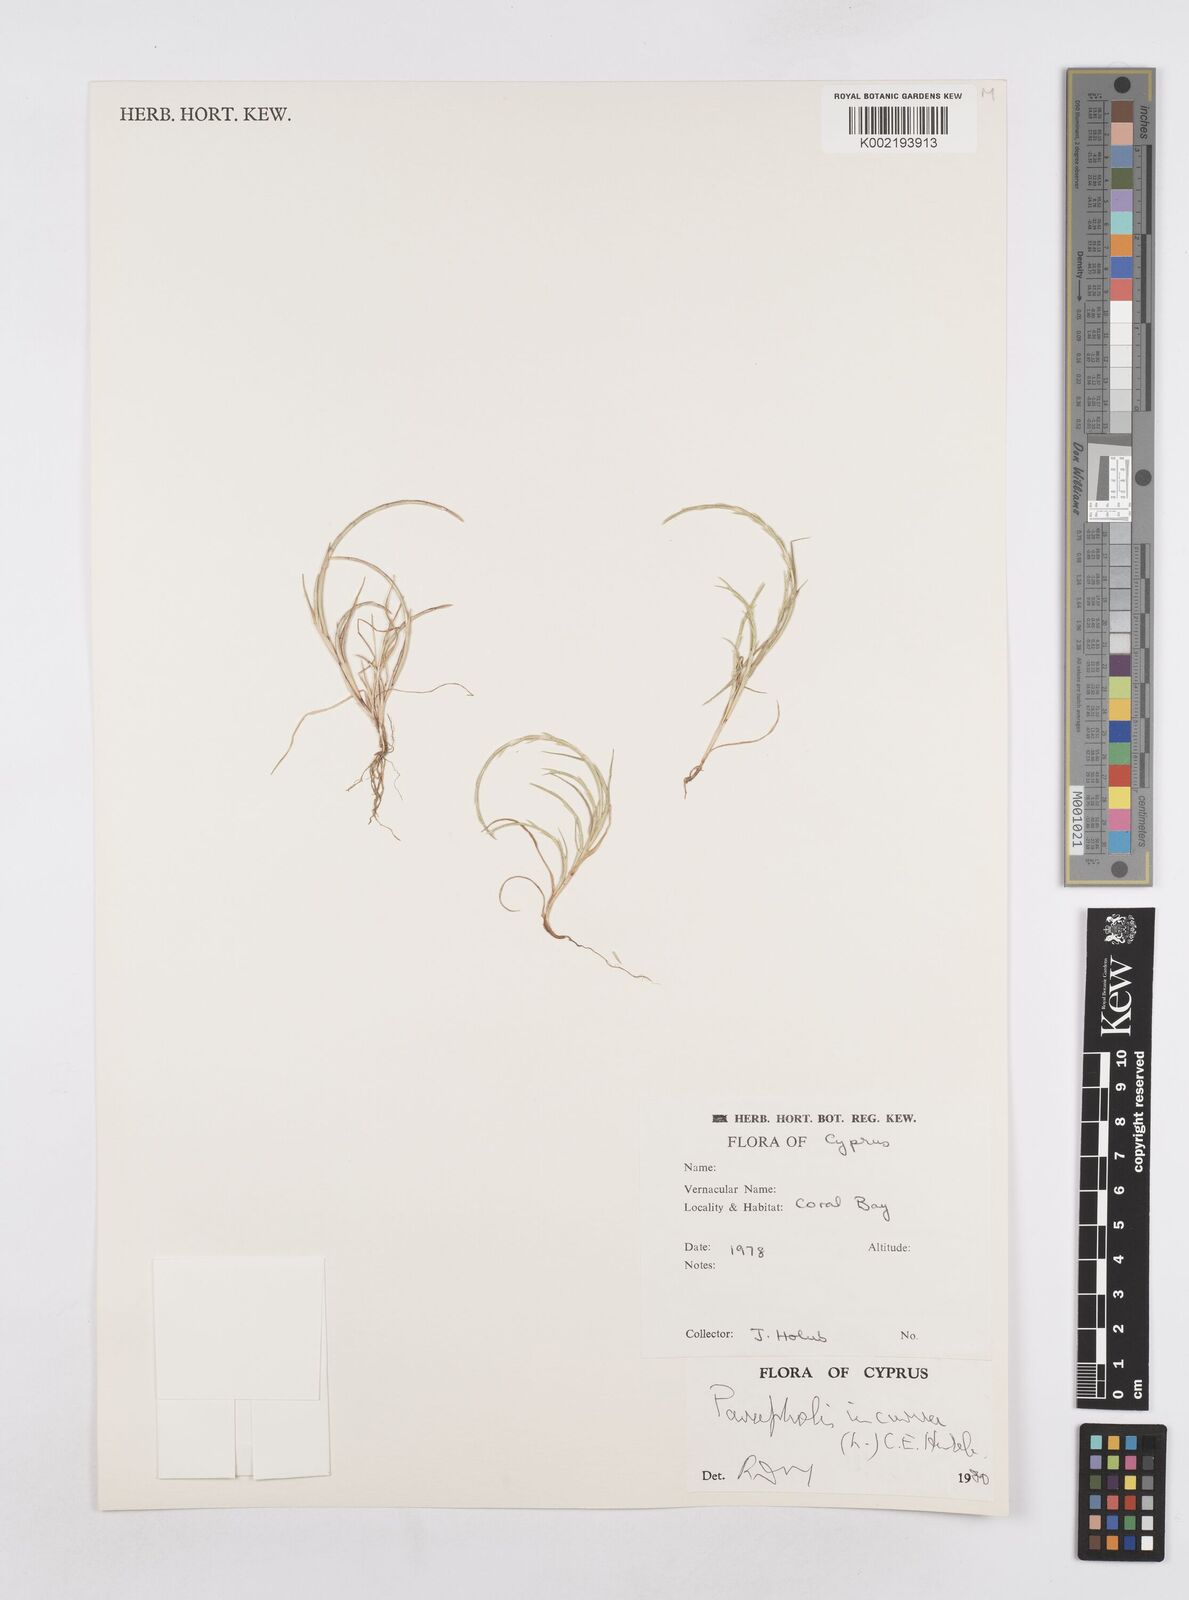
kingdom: Plantae
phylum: Tracheophyta
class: Liliopsida
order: Poales
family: Poaceae
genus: Parapholis
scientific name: Parapholis incurva
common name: Curved sicklegrass
